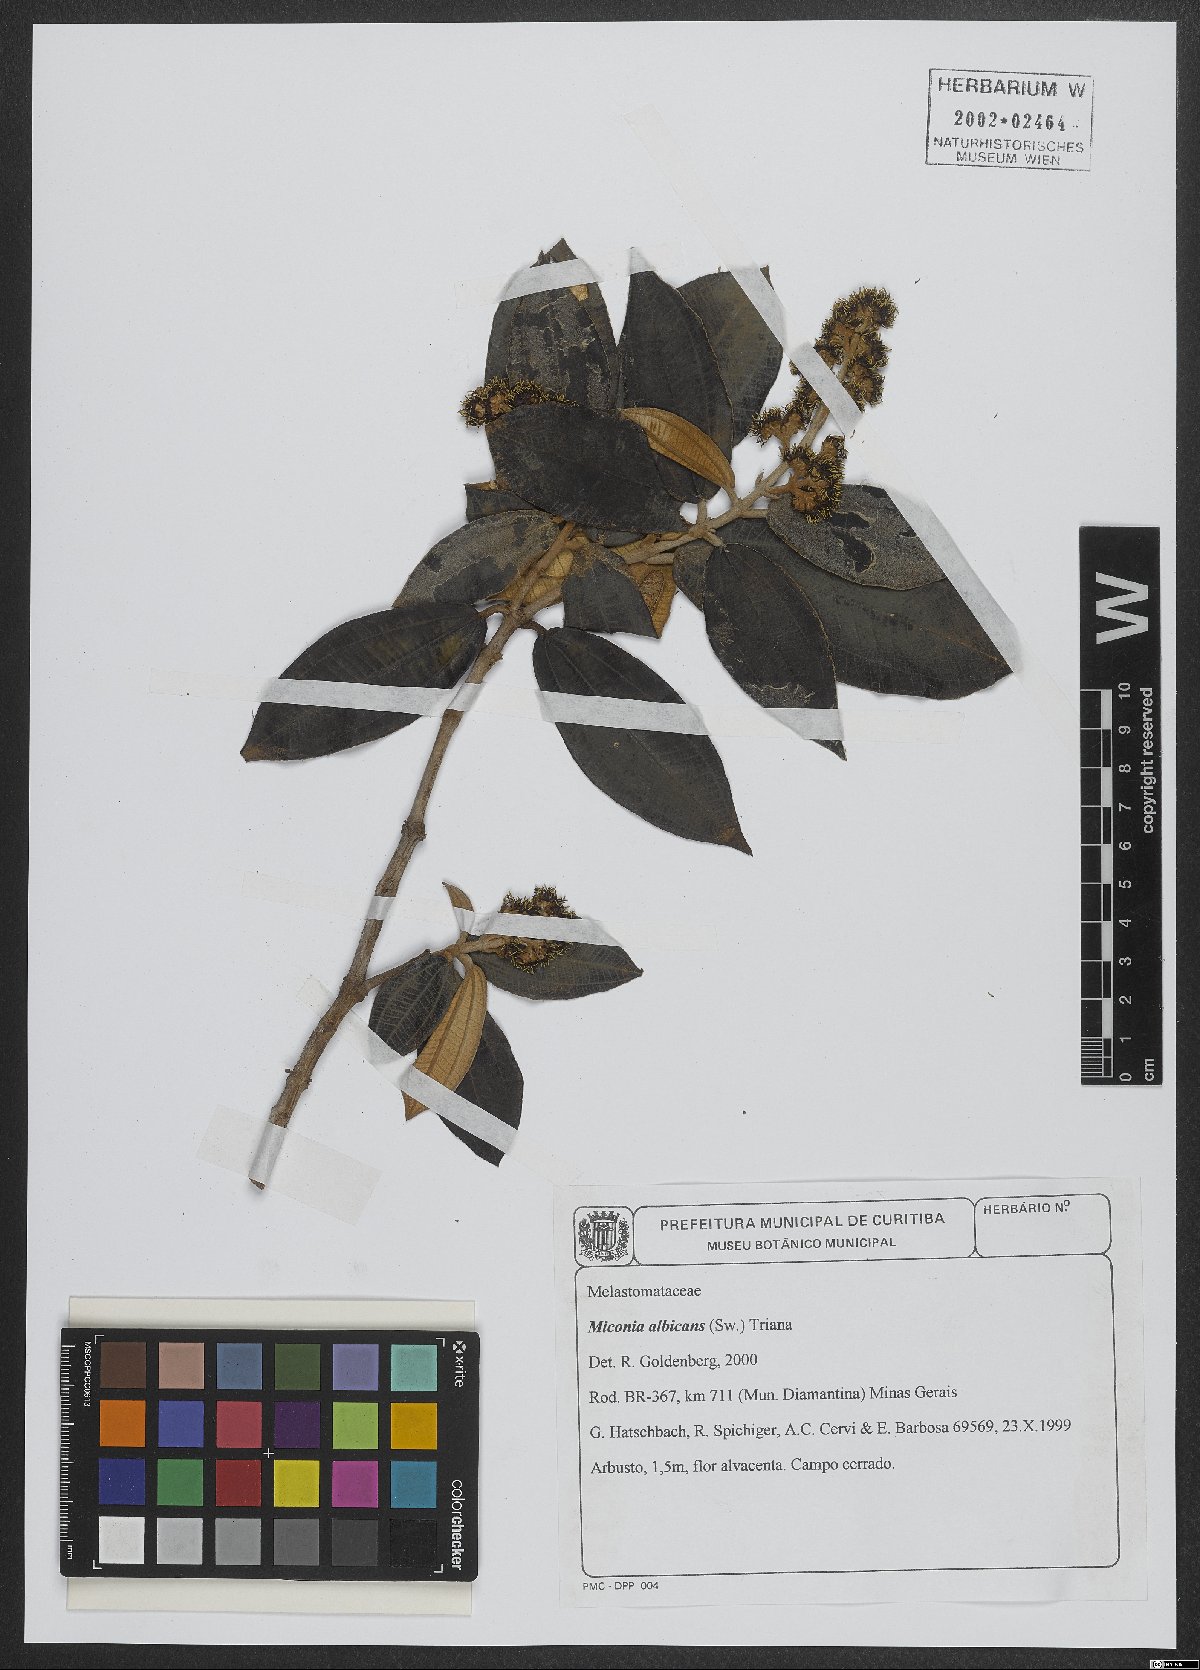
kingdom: Plantae
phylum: Tracheophyta
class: Magnoliopsida
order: Myrtales
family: Melastomataceae
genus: Miconia
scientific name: Miconia albicans
